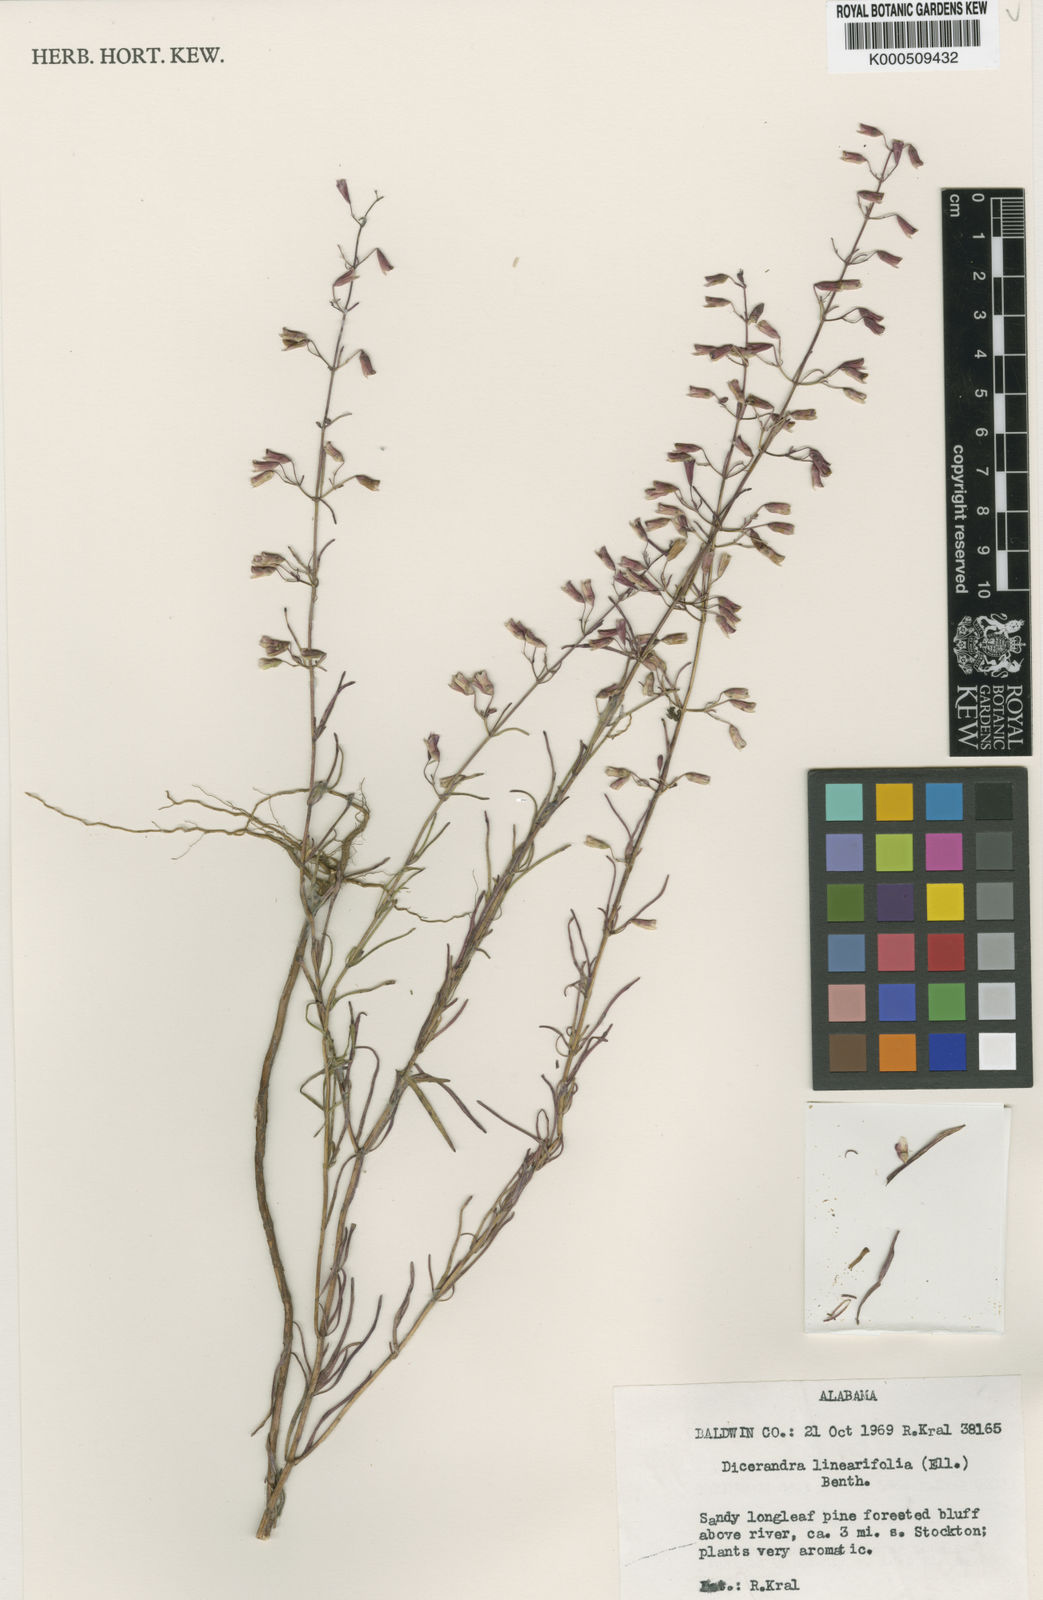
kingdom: Plantae
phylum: Tracheophyta
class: Magnoliopsida
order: Lamiales
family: Lamiaceae
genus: Dicerandra
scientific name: Dicerandra linearifolia
